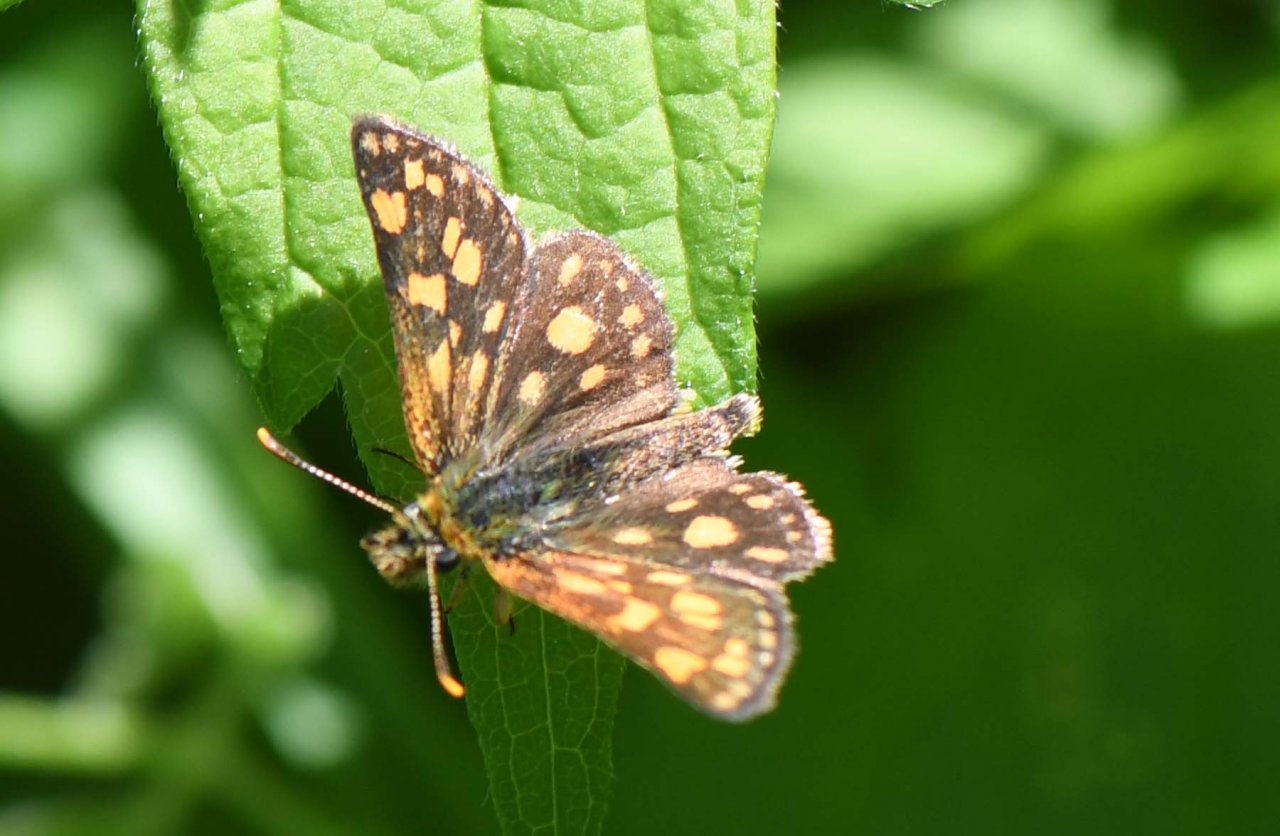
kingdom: Animalia
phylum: Arthropoda
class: Insecta
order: Lepidoptera
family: Hesperiidae
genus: Carterocephalus
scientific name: Carterocephalus palaemon
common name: Chequered Skipper
